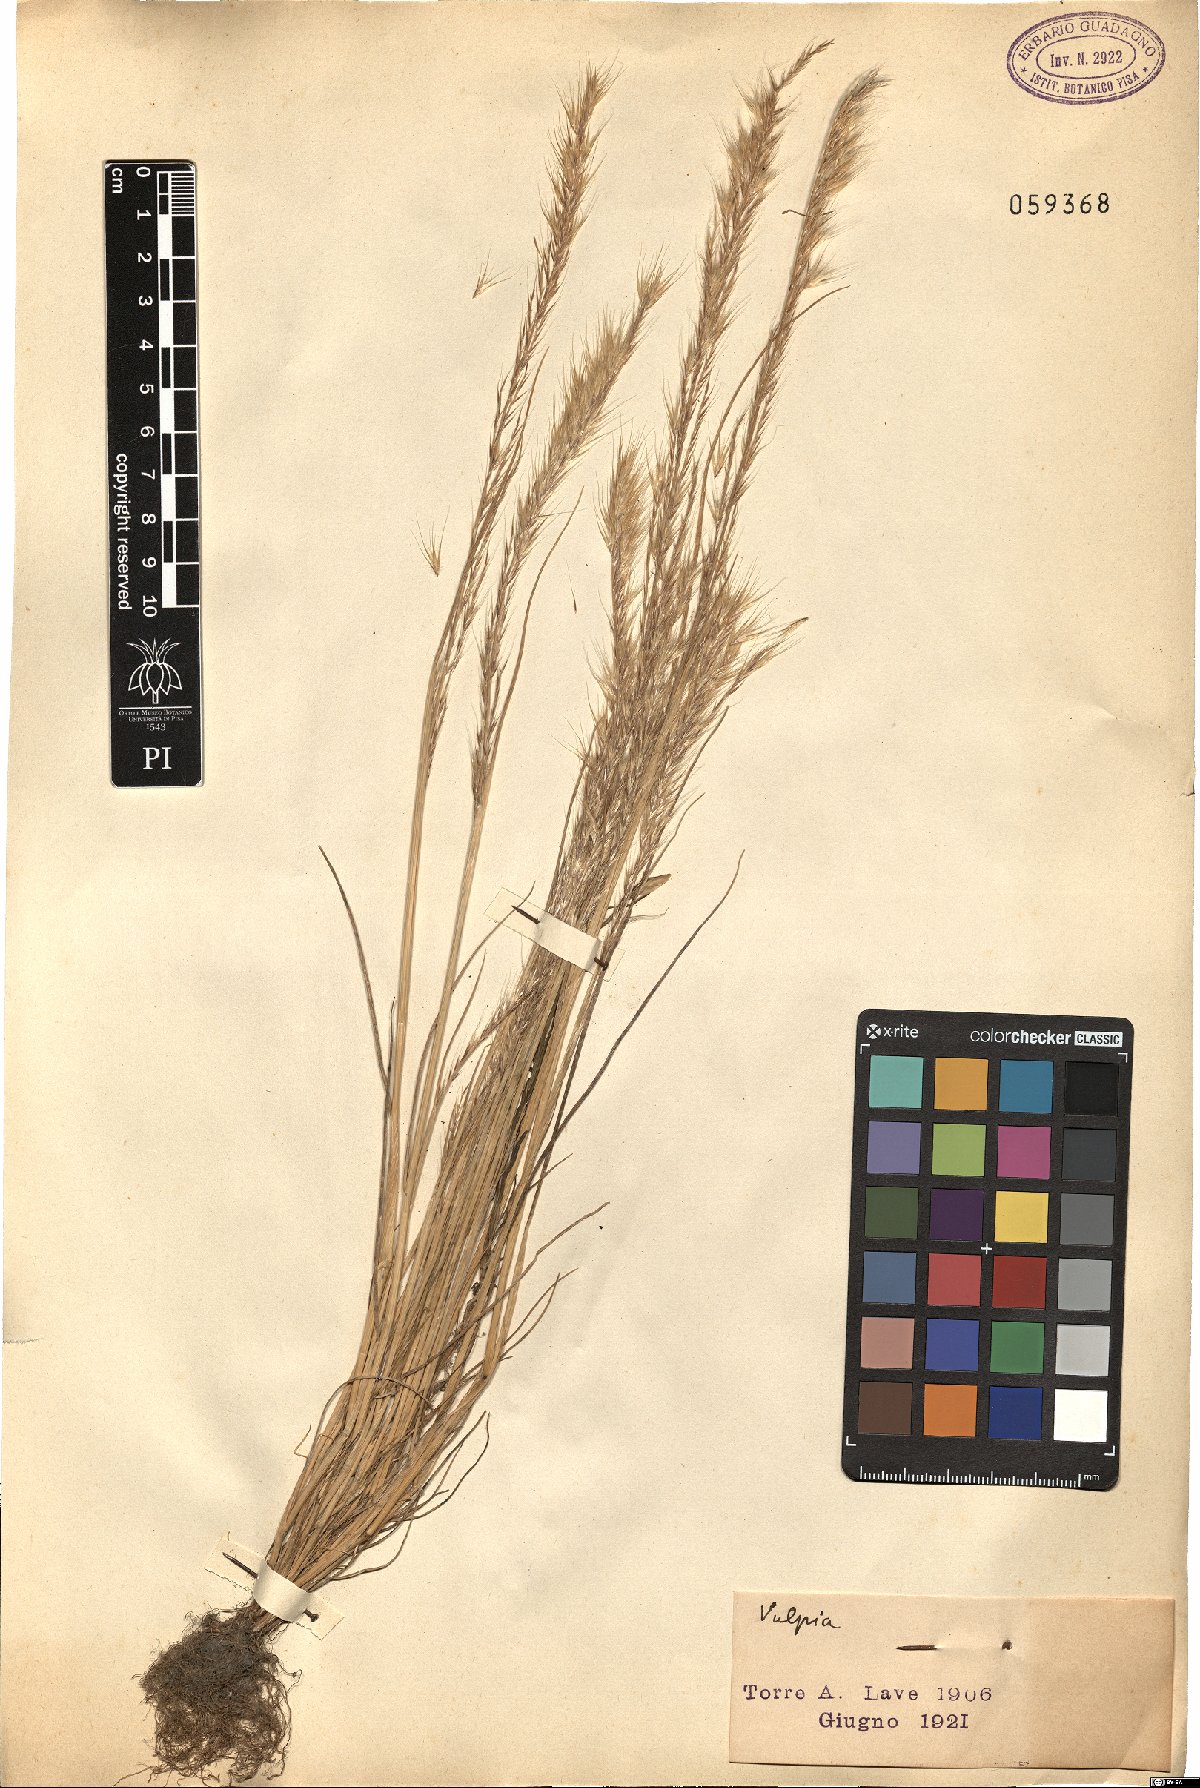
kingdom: Plantae
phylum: Tracheophyta
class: Liliopsida
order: Poales
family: Poaceae
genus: Festuca
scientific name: Festuca
